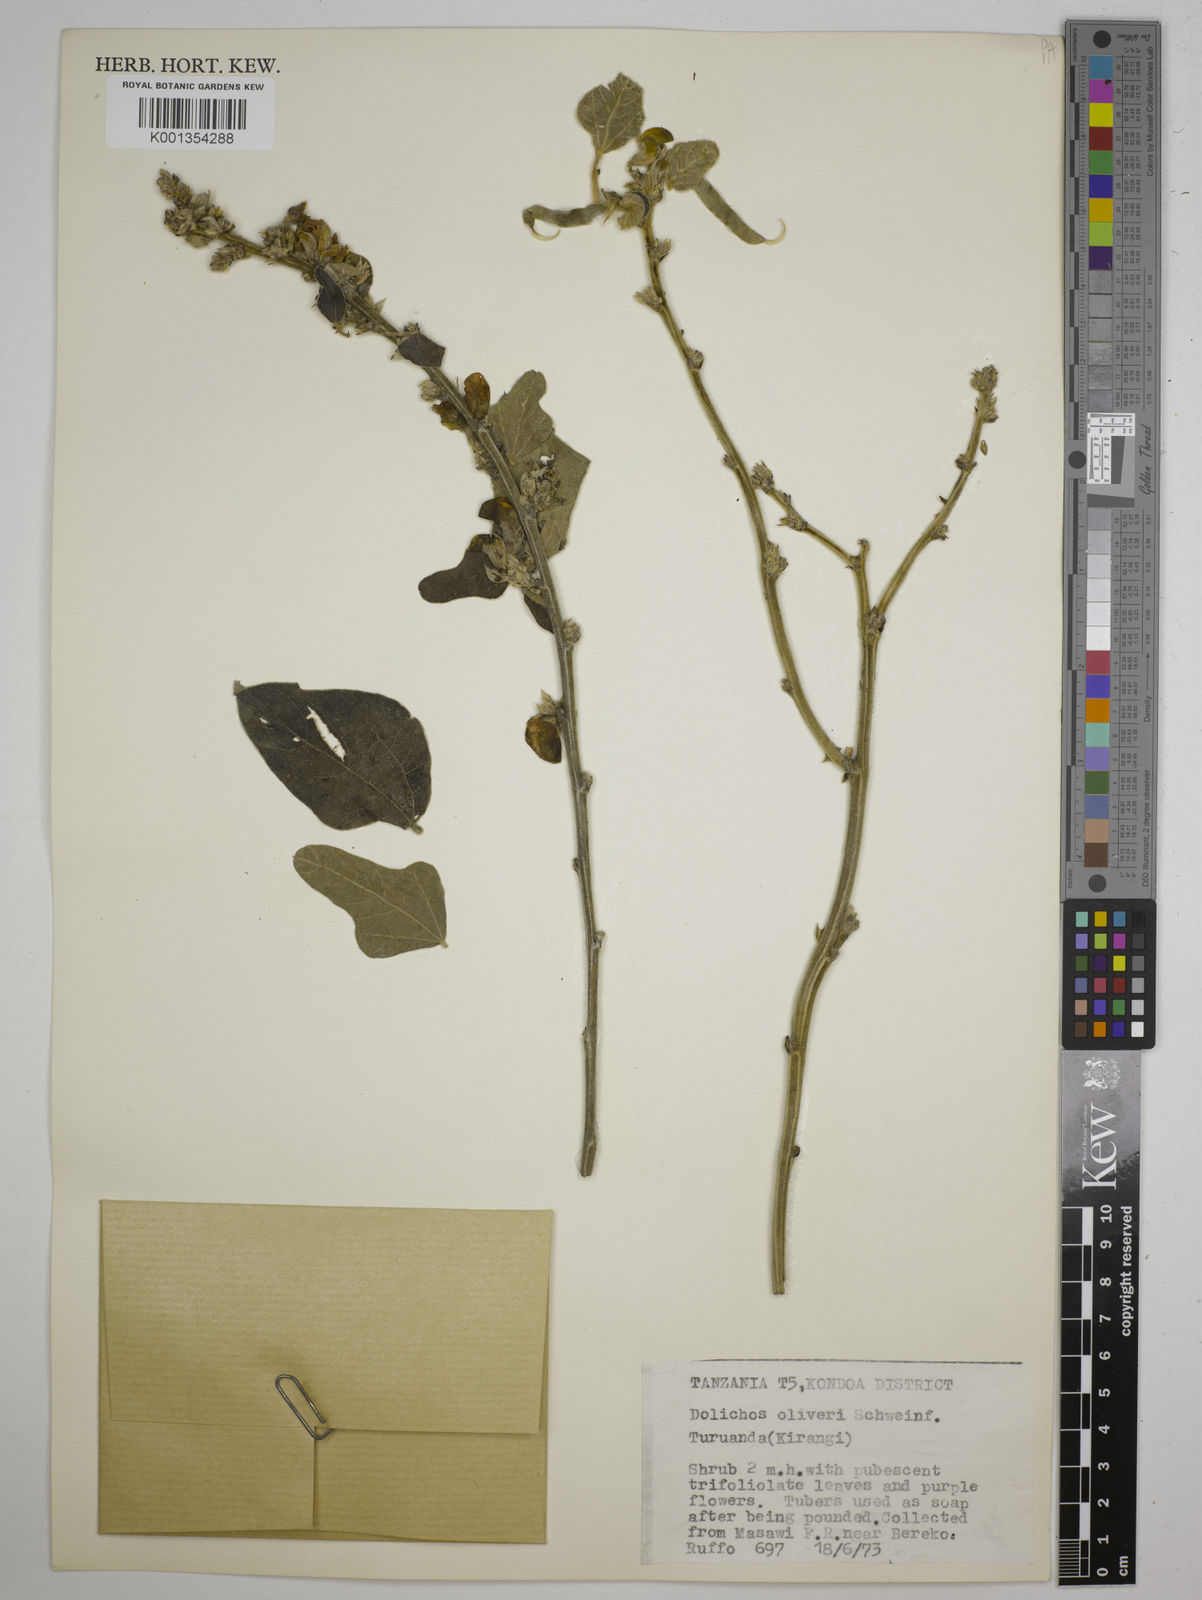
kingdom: Plantae
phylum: Tracheophyta
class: Magnoliopsida
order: Fabales
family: Fabaceae
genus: Dolichos
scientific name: Dolichos oliveri
